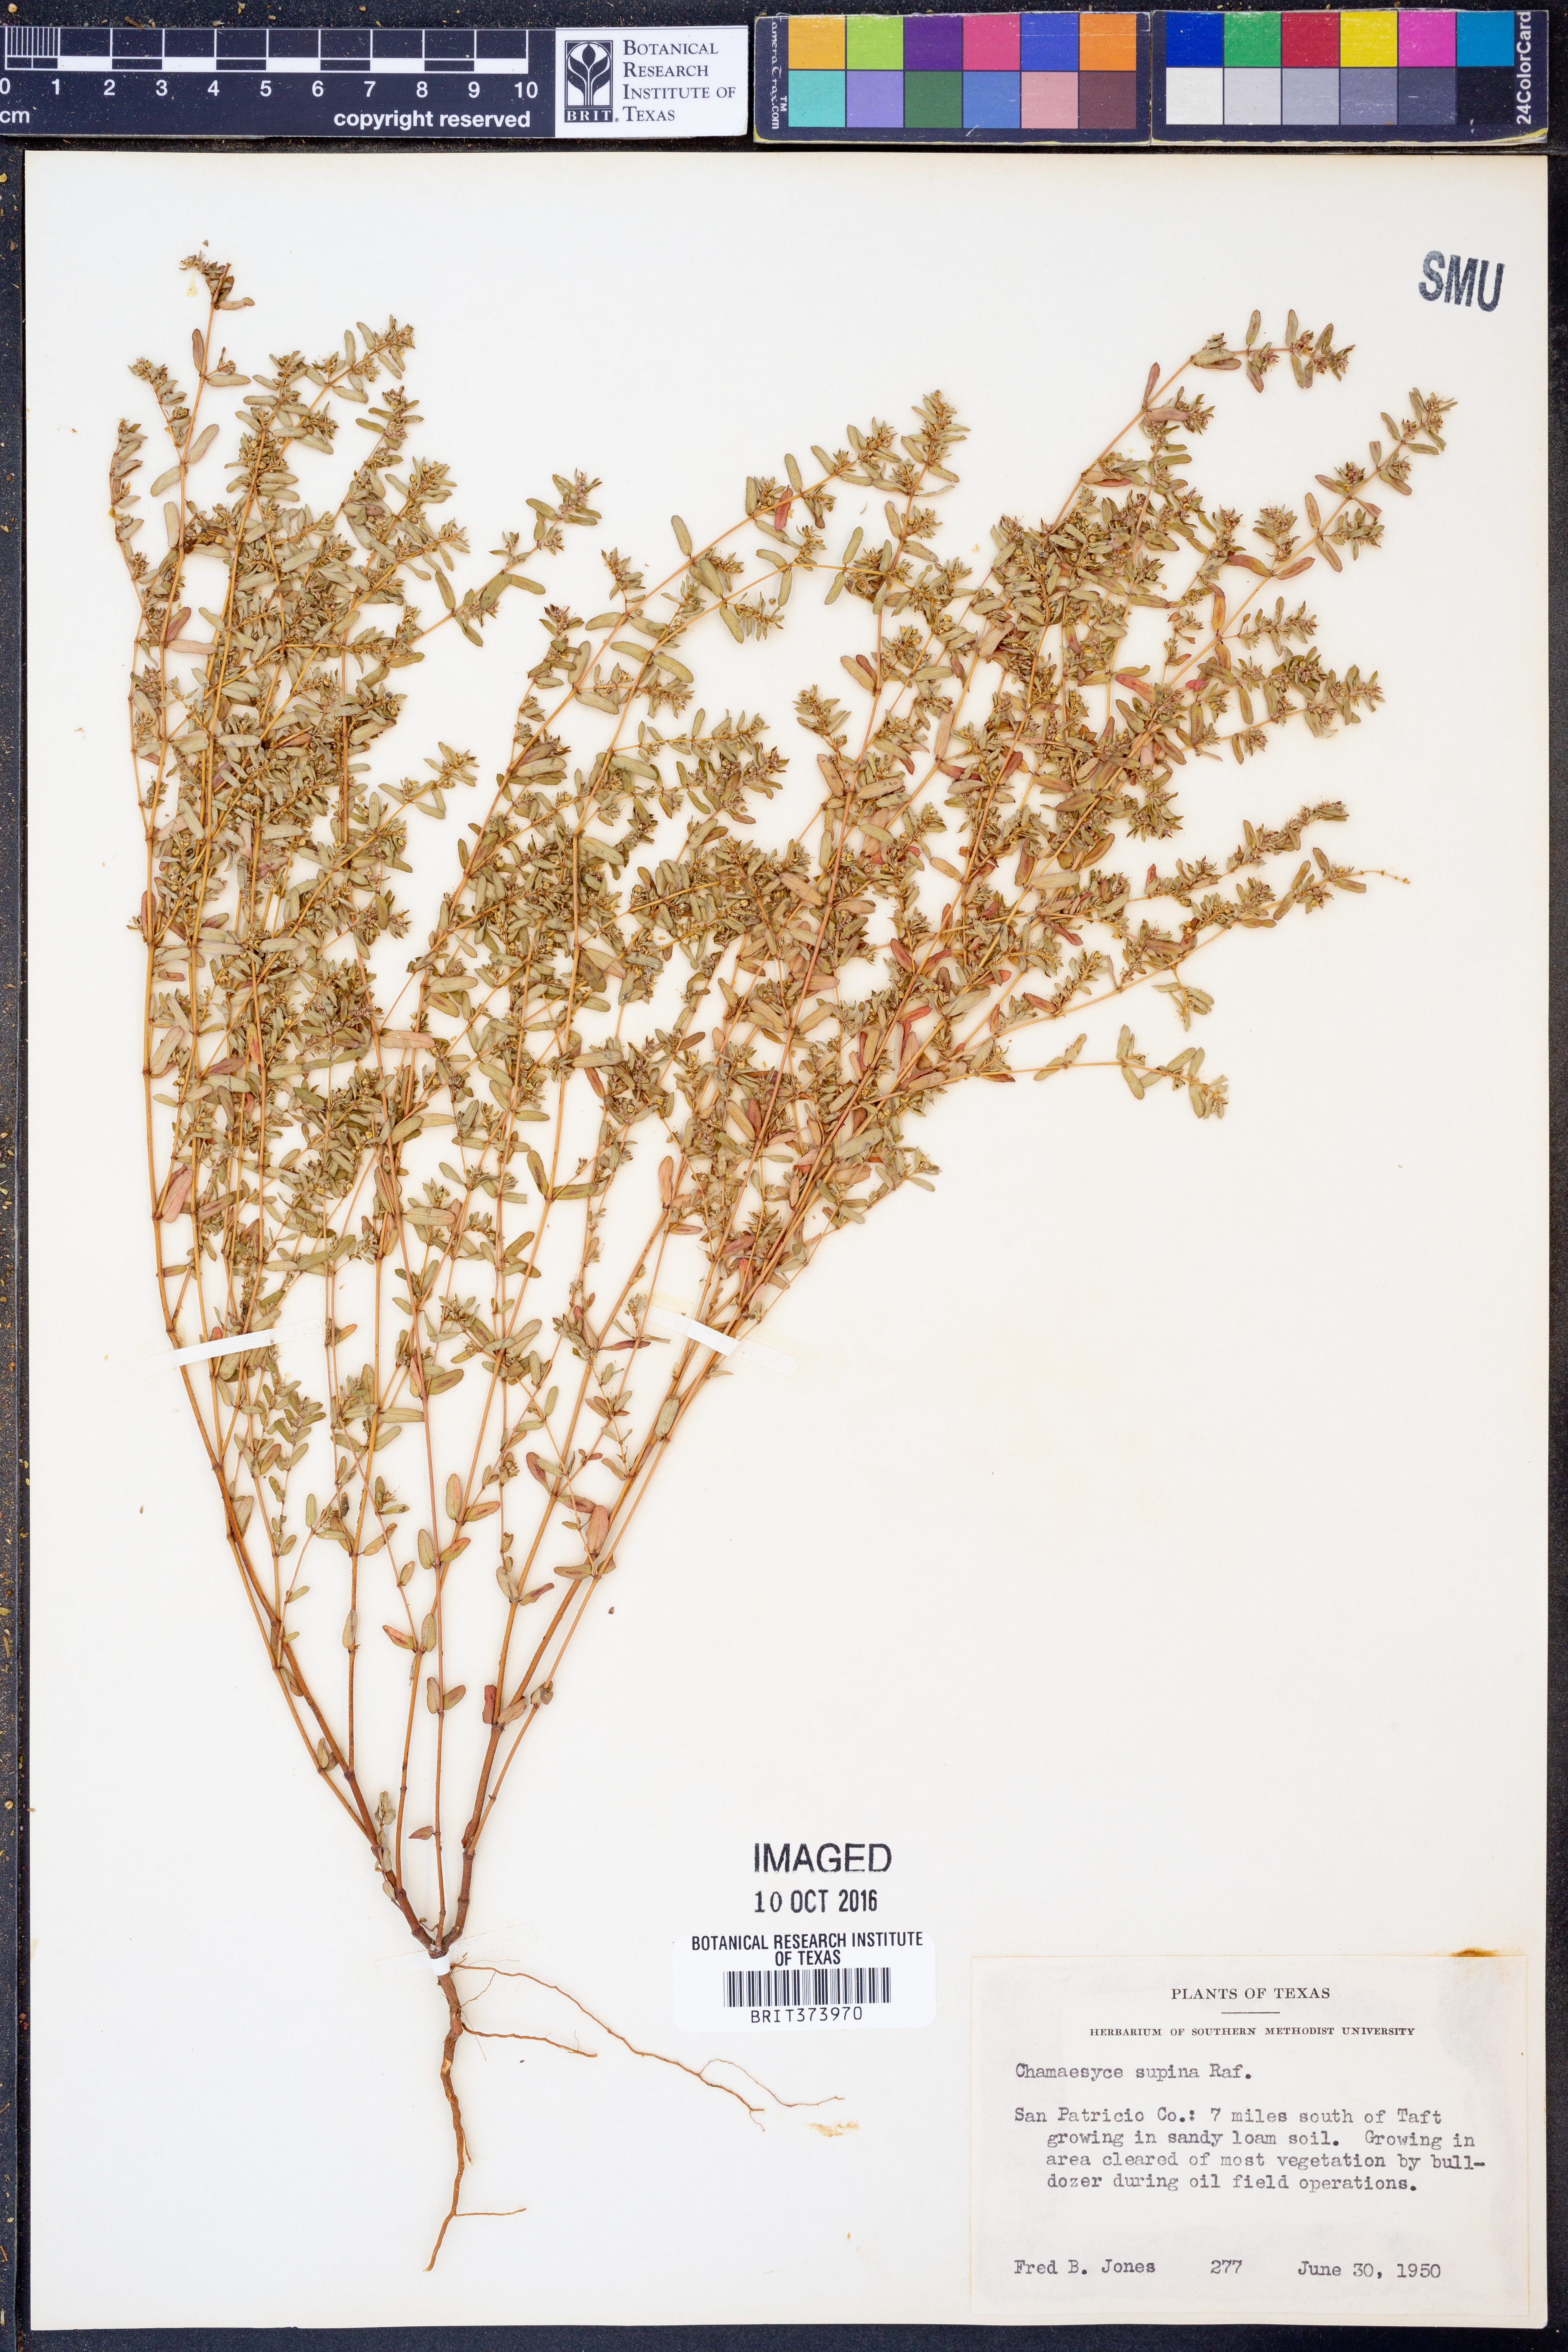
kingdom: Plantae
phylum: Tracheophyta
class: Magnoliopsida
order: Malpighiales
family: Euphorbiaceae
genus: Euphorbia
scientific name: Euphorbia maculata
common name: Spotted spurge
